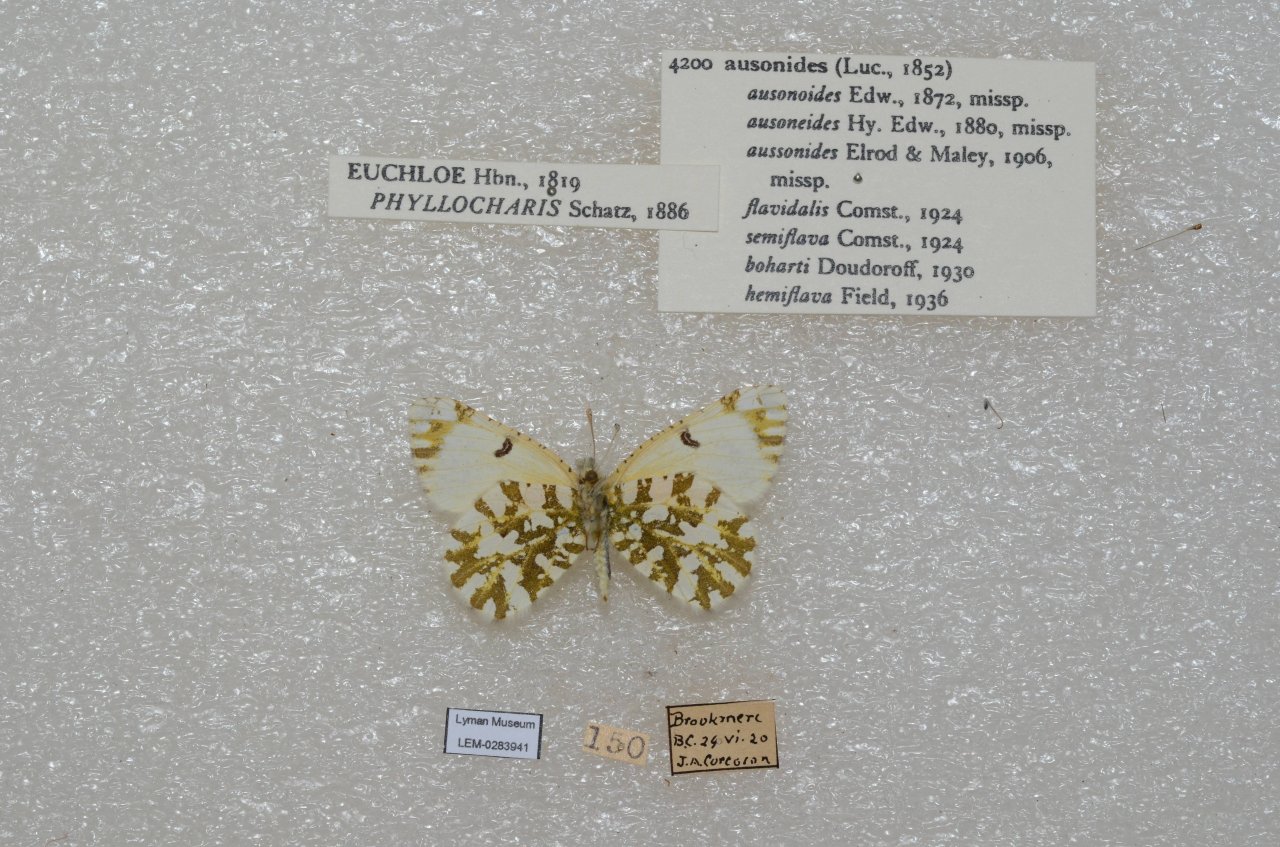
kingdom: Animalia
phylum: Arthropoda
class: Insecta
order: Lepidoptera
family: Pieridae
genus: Euchloe
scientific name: Euchloe ausonides
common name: Large Marble
